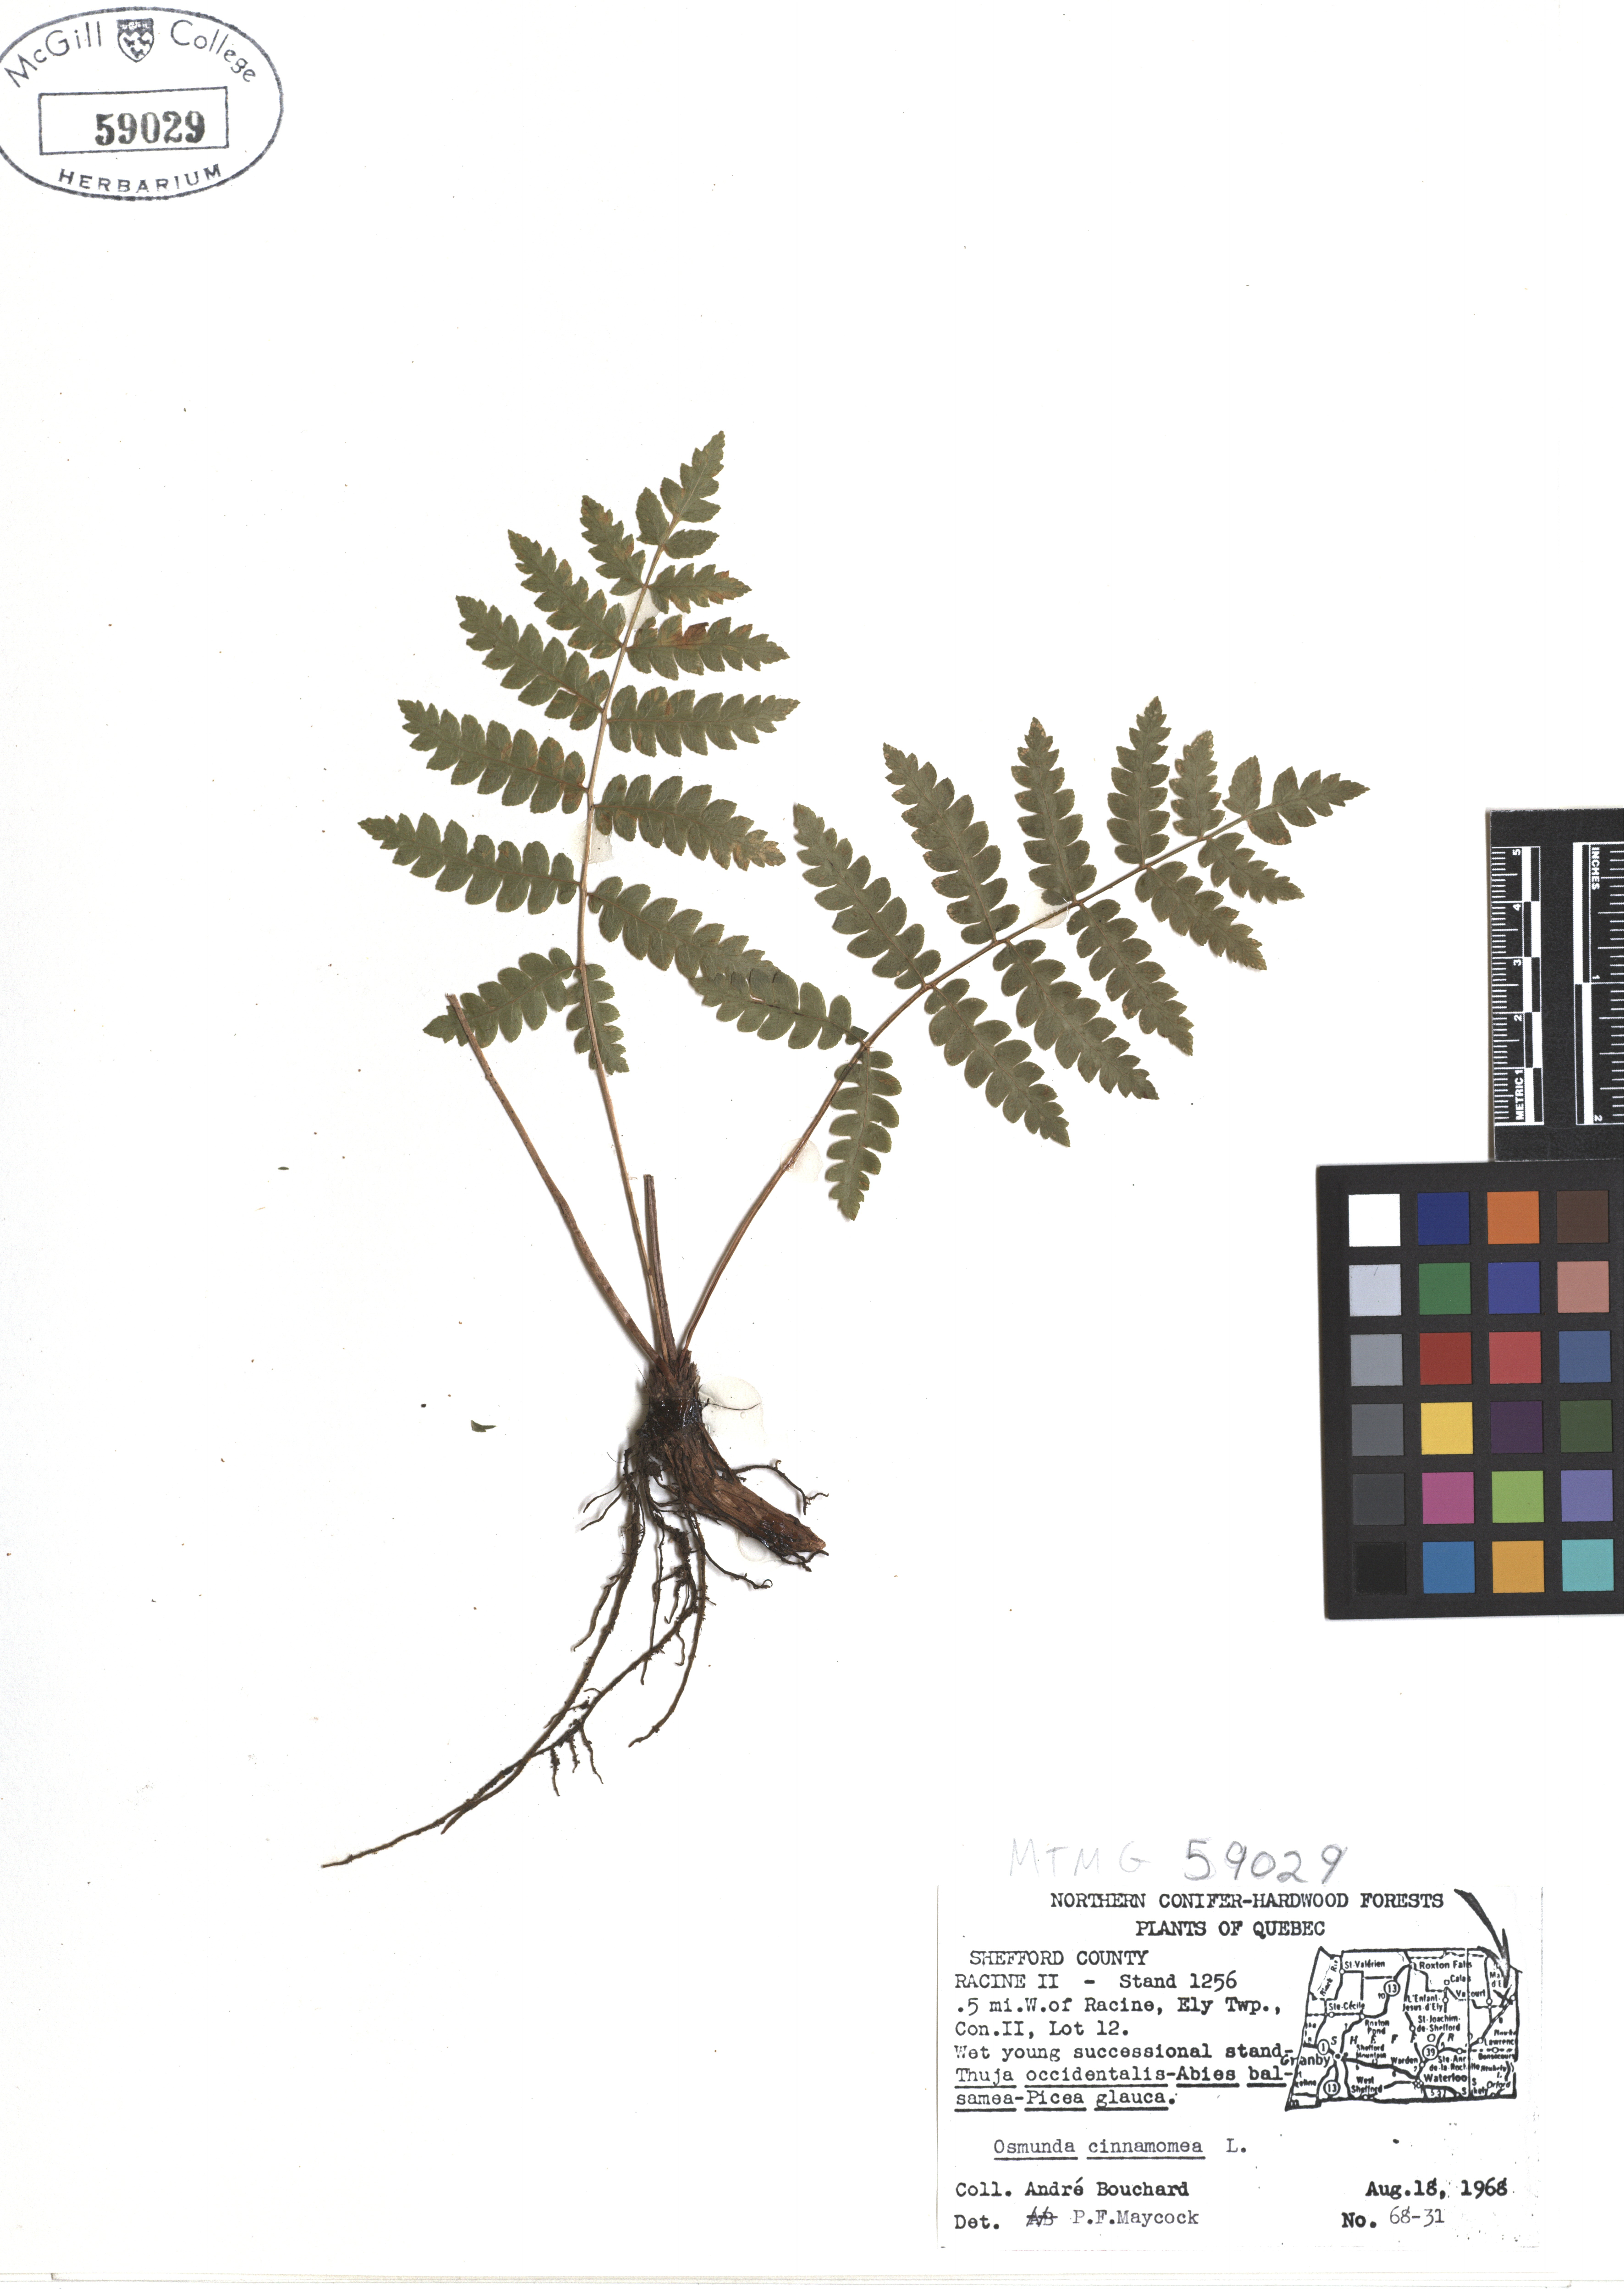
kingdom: Plantae
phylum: Tracheophyta
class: Polypodiopsida
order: Osmundales
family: Osmundaceae
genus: Osmundastrum
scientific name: Osmundastrum cinnamomeum
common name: Cinnamon fern
